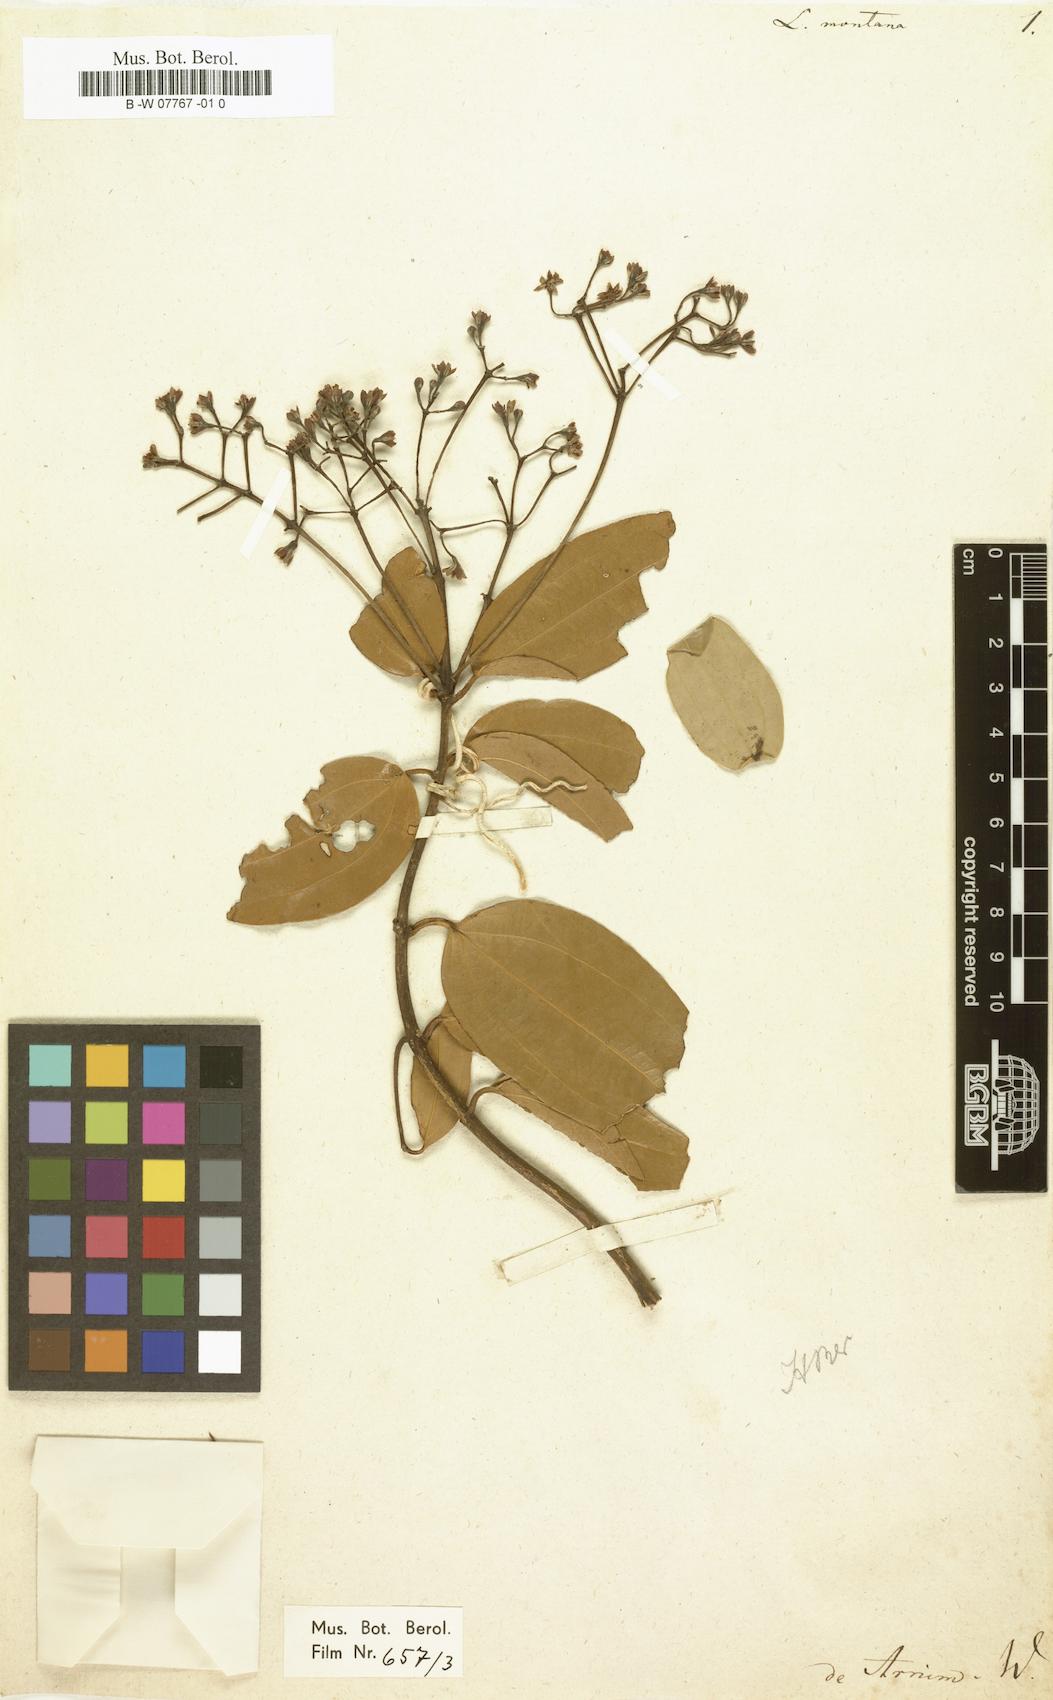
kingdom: Plantae
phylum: Tracheophyta
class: Magnoliopsida
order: Laurales
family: Lauraceae
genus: Aiouea
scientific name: Aiouea montana
